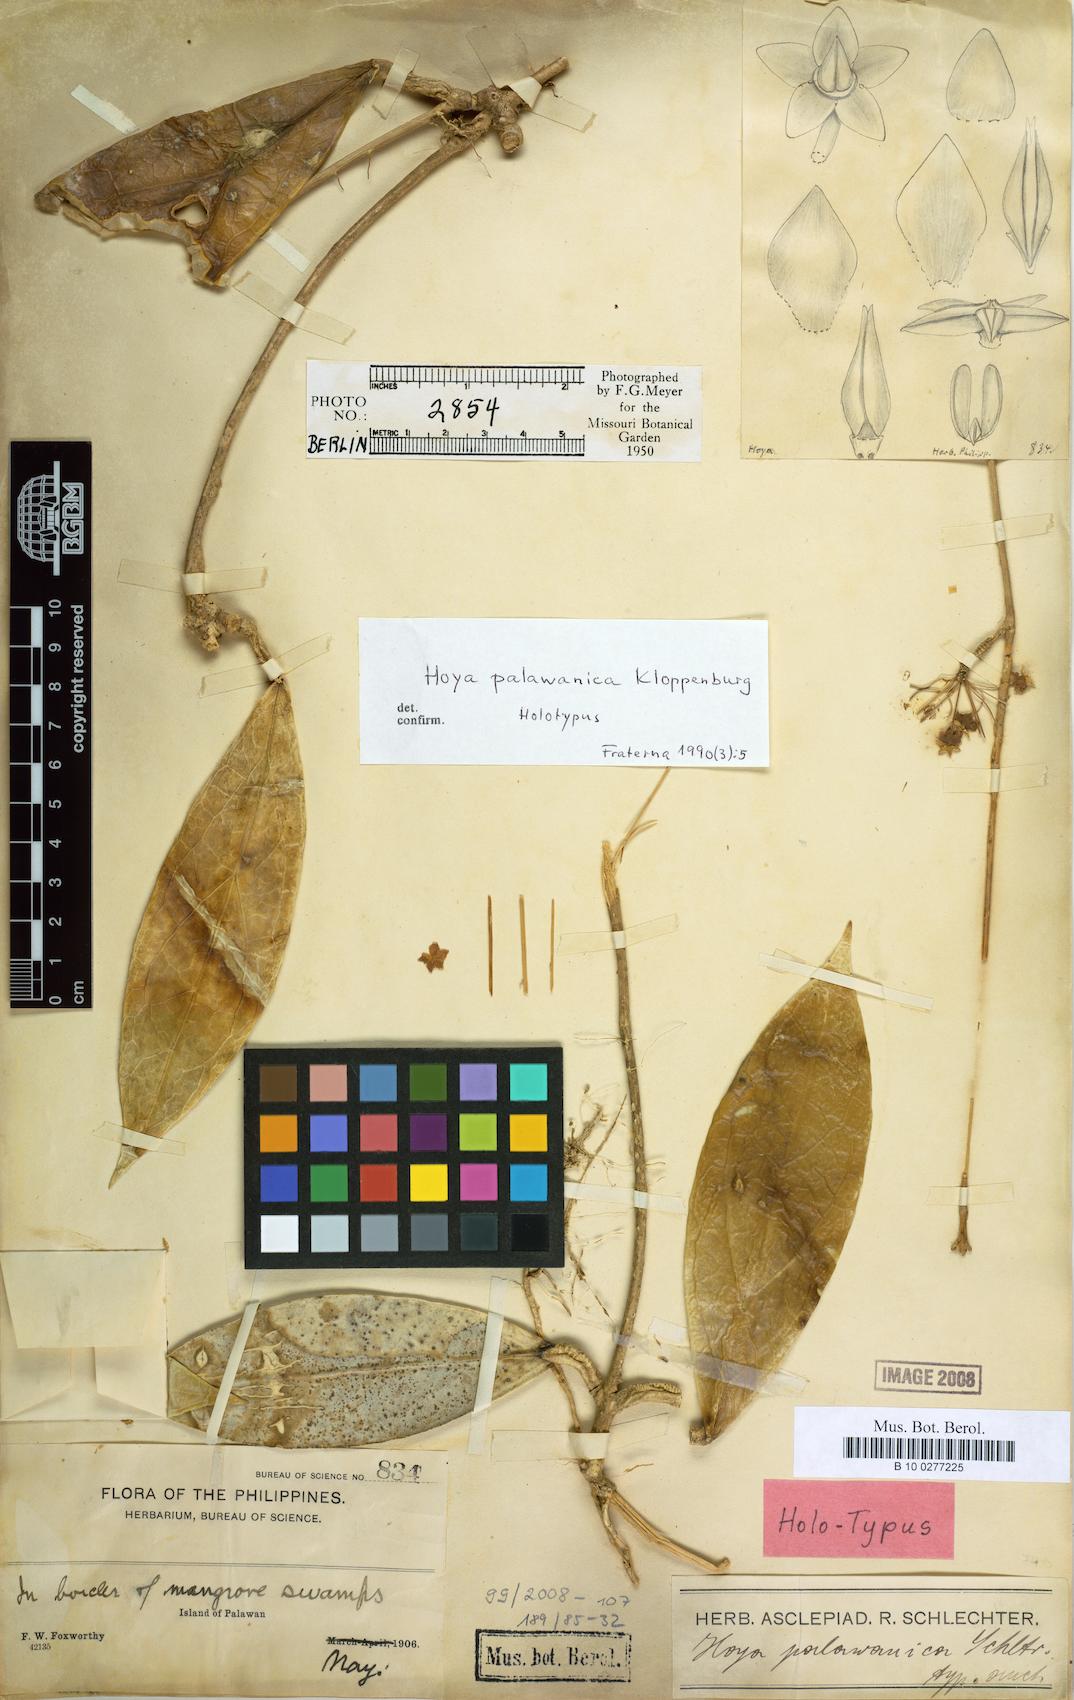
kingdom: Plantae
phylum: Tracheophyta
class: Magnoliopsida
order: Gentianales
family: Apocynaceae
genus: Hoya
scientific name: Hoya palawanica
